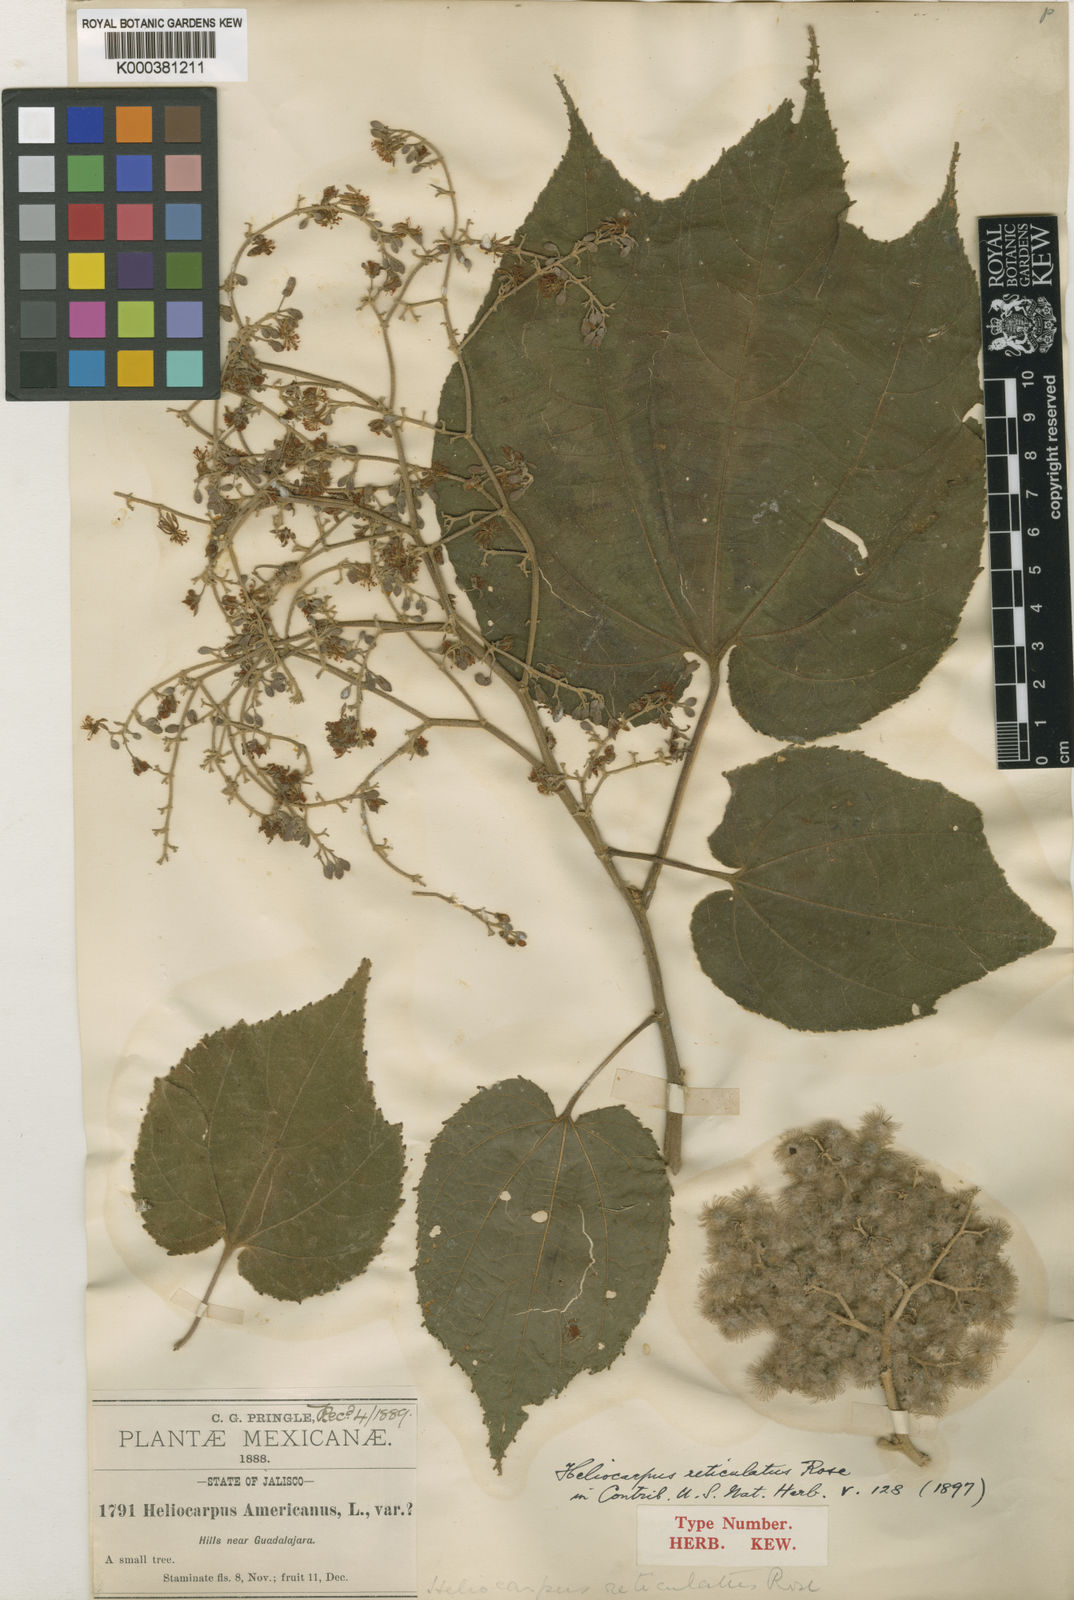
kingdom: Plantae
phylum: Tracheophyta
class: Magnoliopsida
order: Malvales
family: Malvaceae
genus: Heliocarpus
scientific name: Heliocarpus terebinthinaceus
